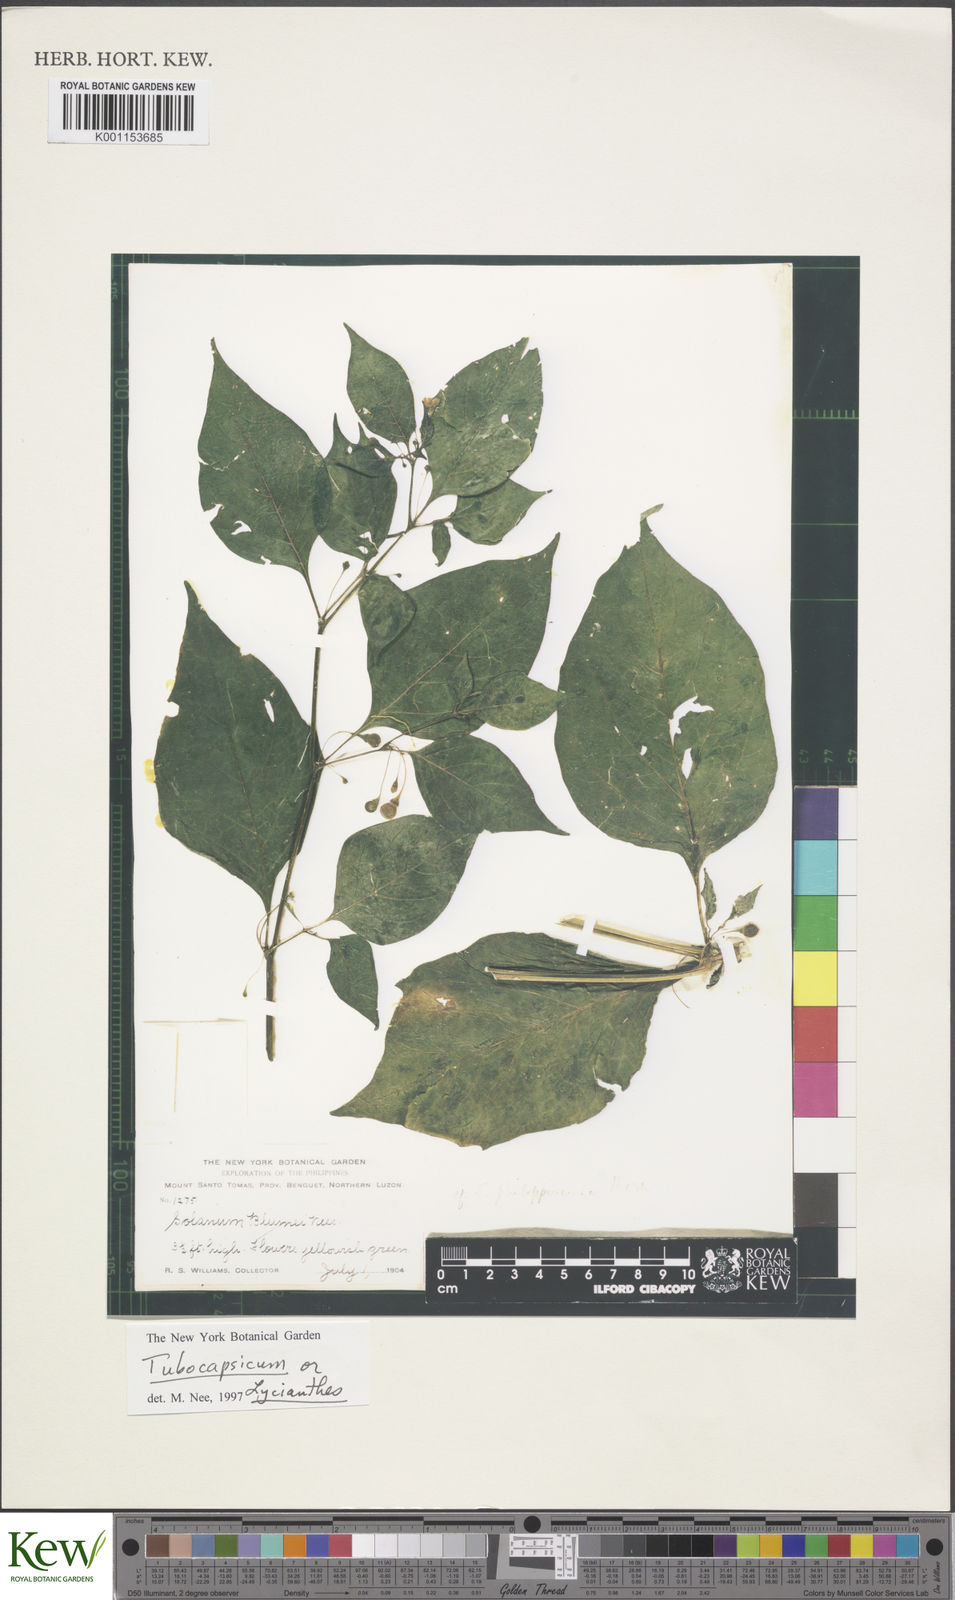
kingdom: Plantae
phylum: Tracheophyta
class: Magnoliopsida
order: Solanales
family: Solanaceae
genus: Solanum
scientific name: Solanum
